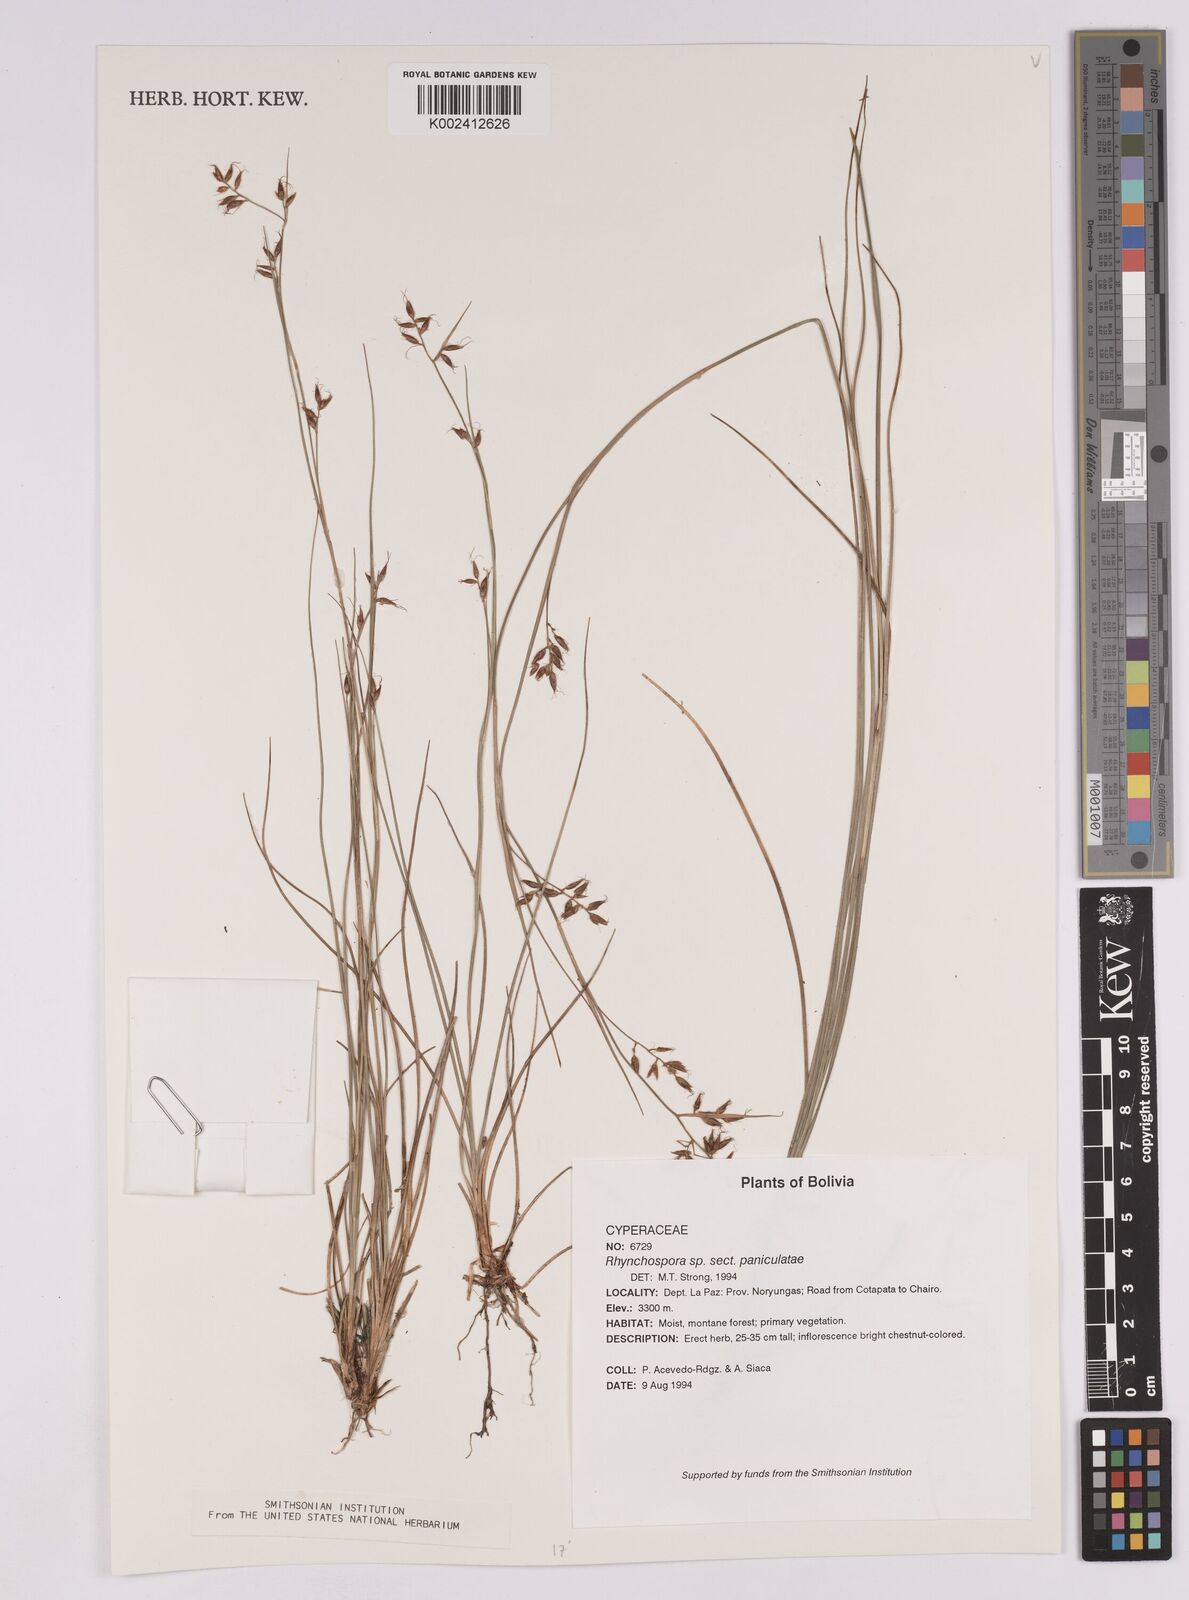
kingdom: Plantae
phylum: Tracheophyta
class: Liliopsida
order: Poales
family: Cyperaceae
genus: Rhynchospora
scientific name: Rhynchospora polyphylla
